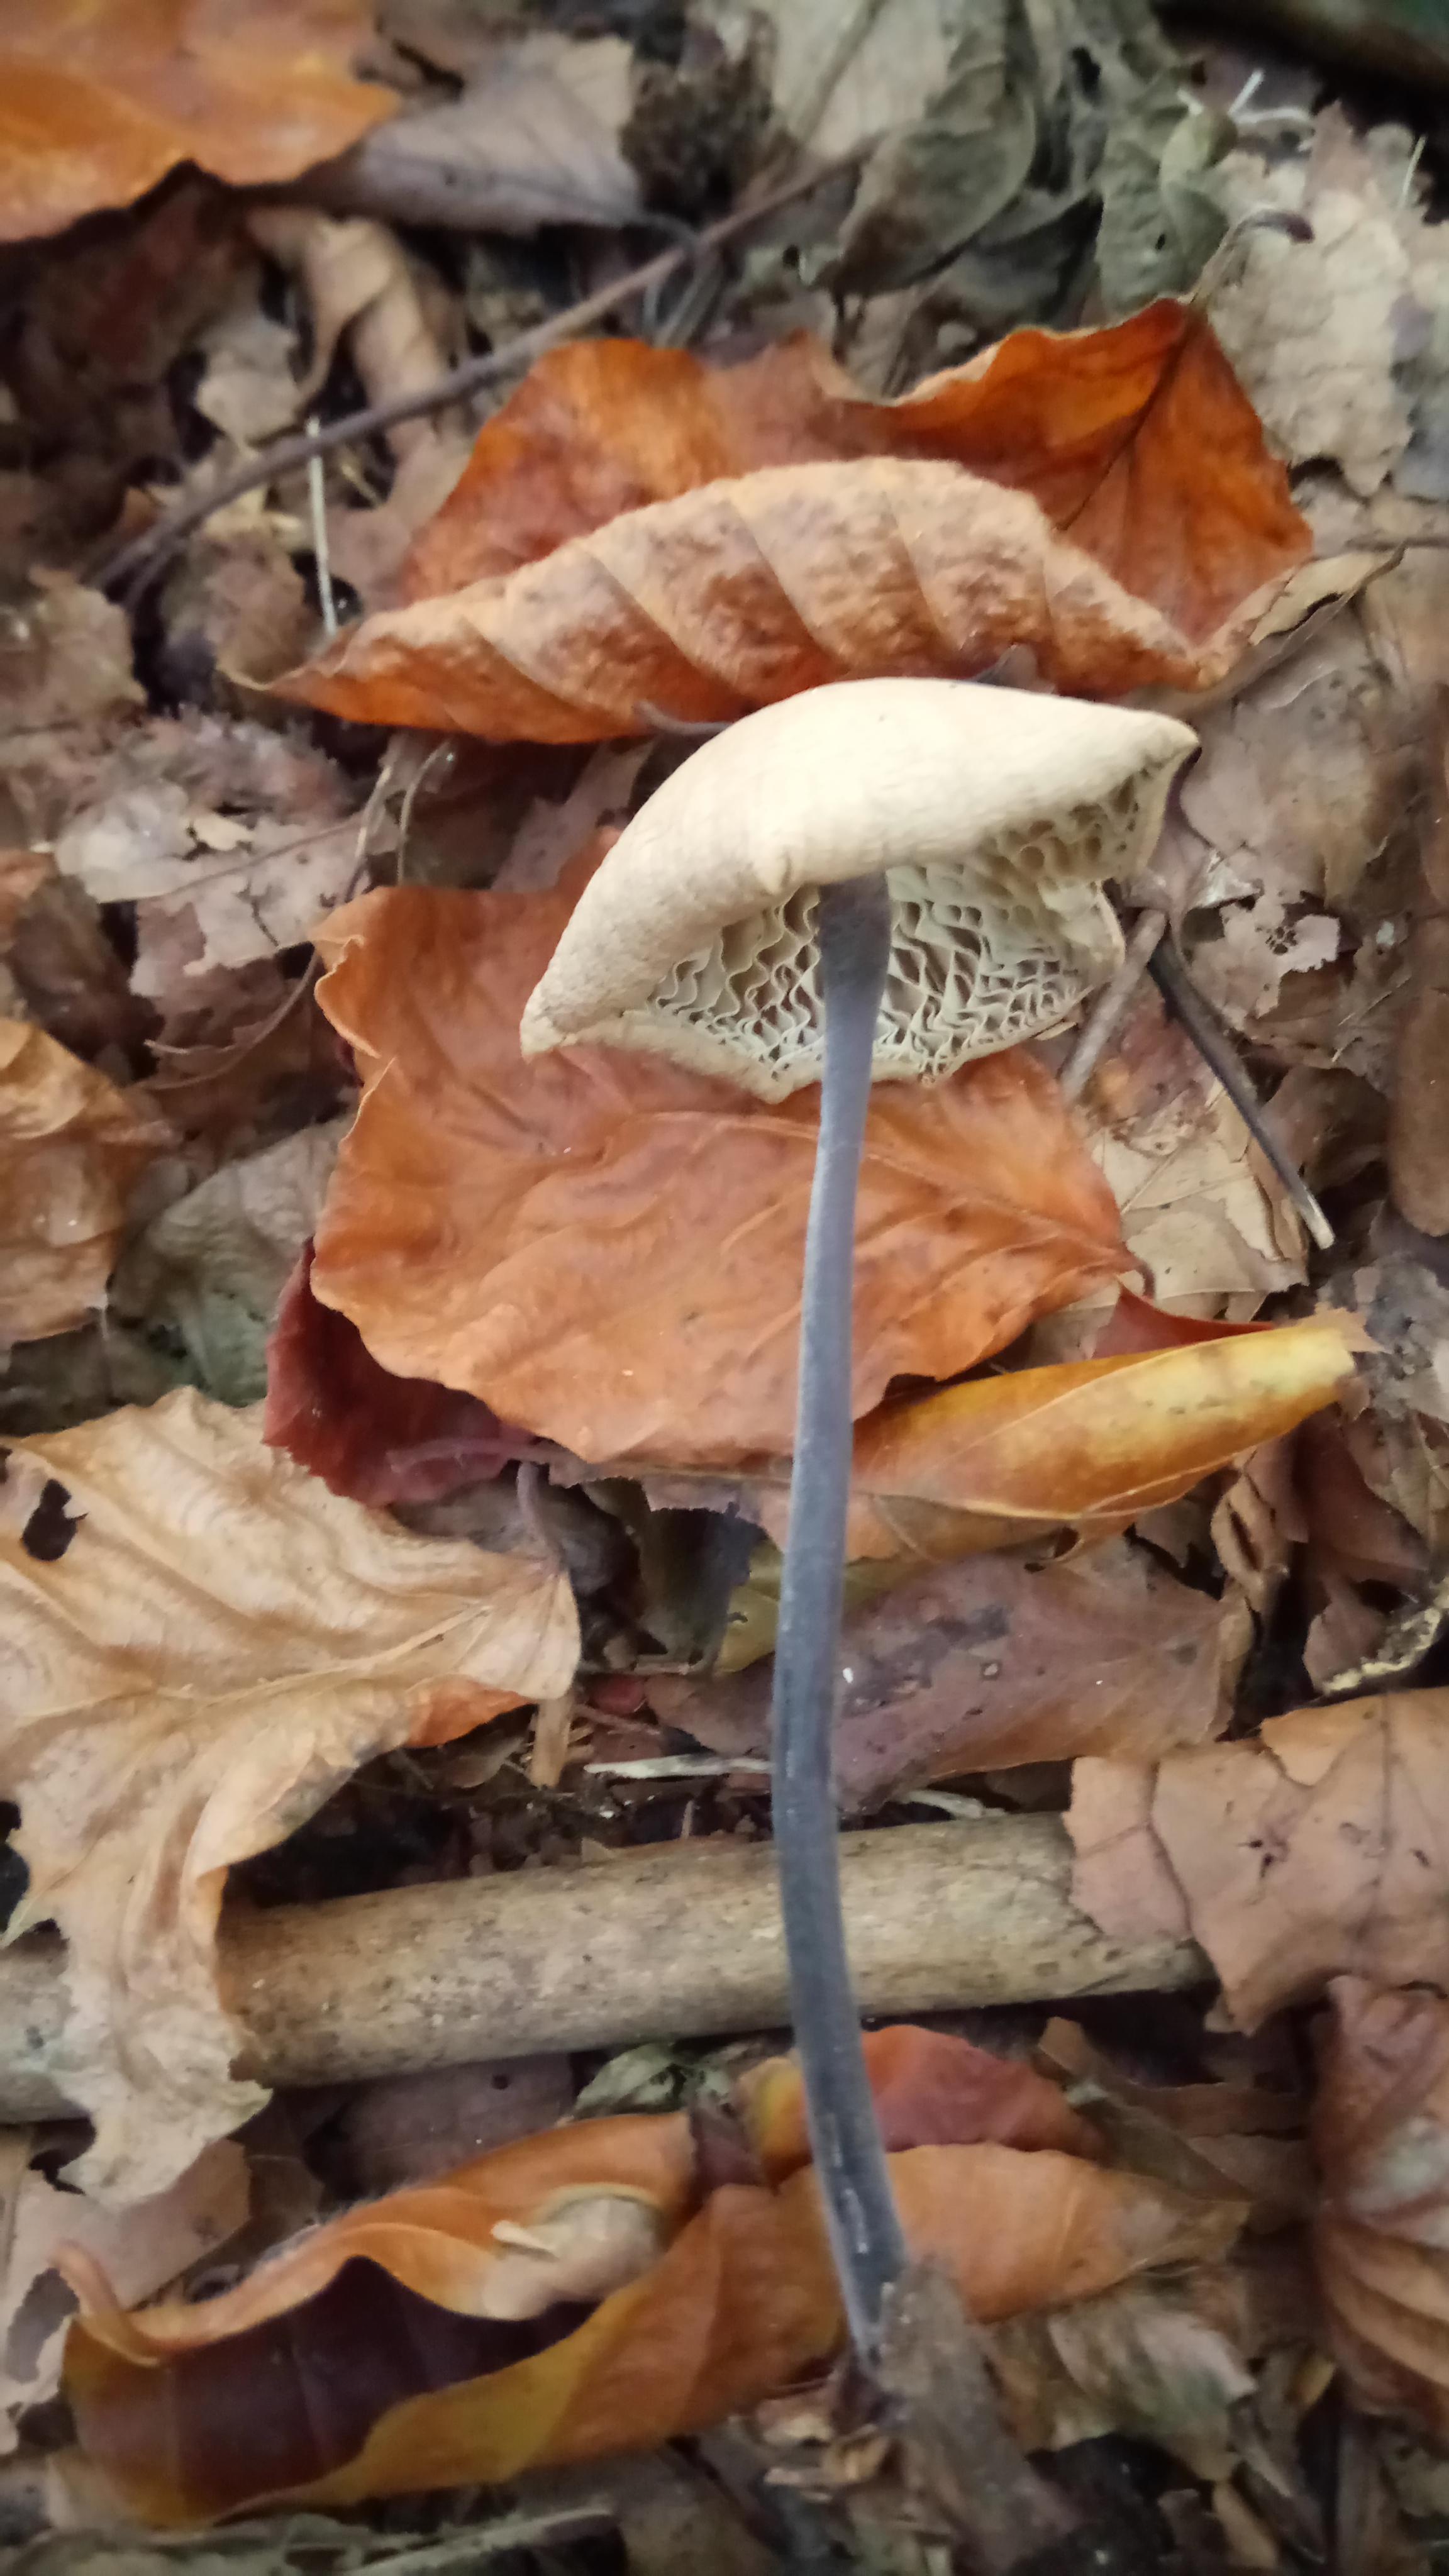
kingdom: Fungi
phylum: Basidiomycota
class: Agaricomycetes
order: Agaricales
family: Omphalotaceae
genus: Mycetinis
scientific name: Mycetinis alliaceus
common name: stor løghat
